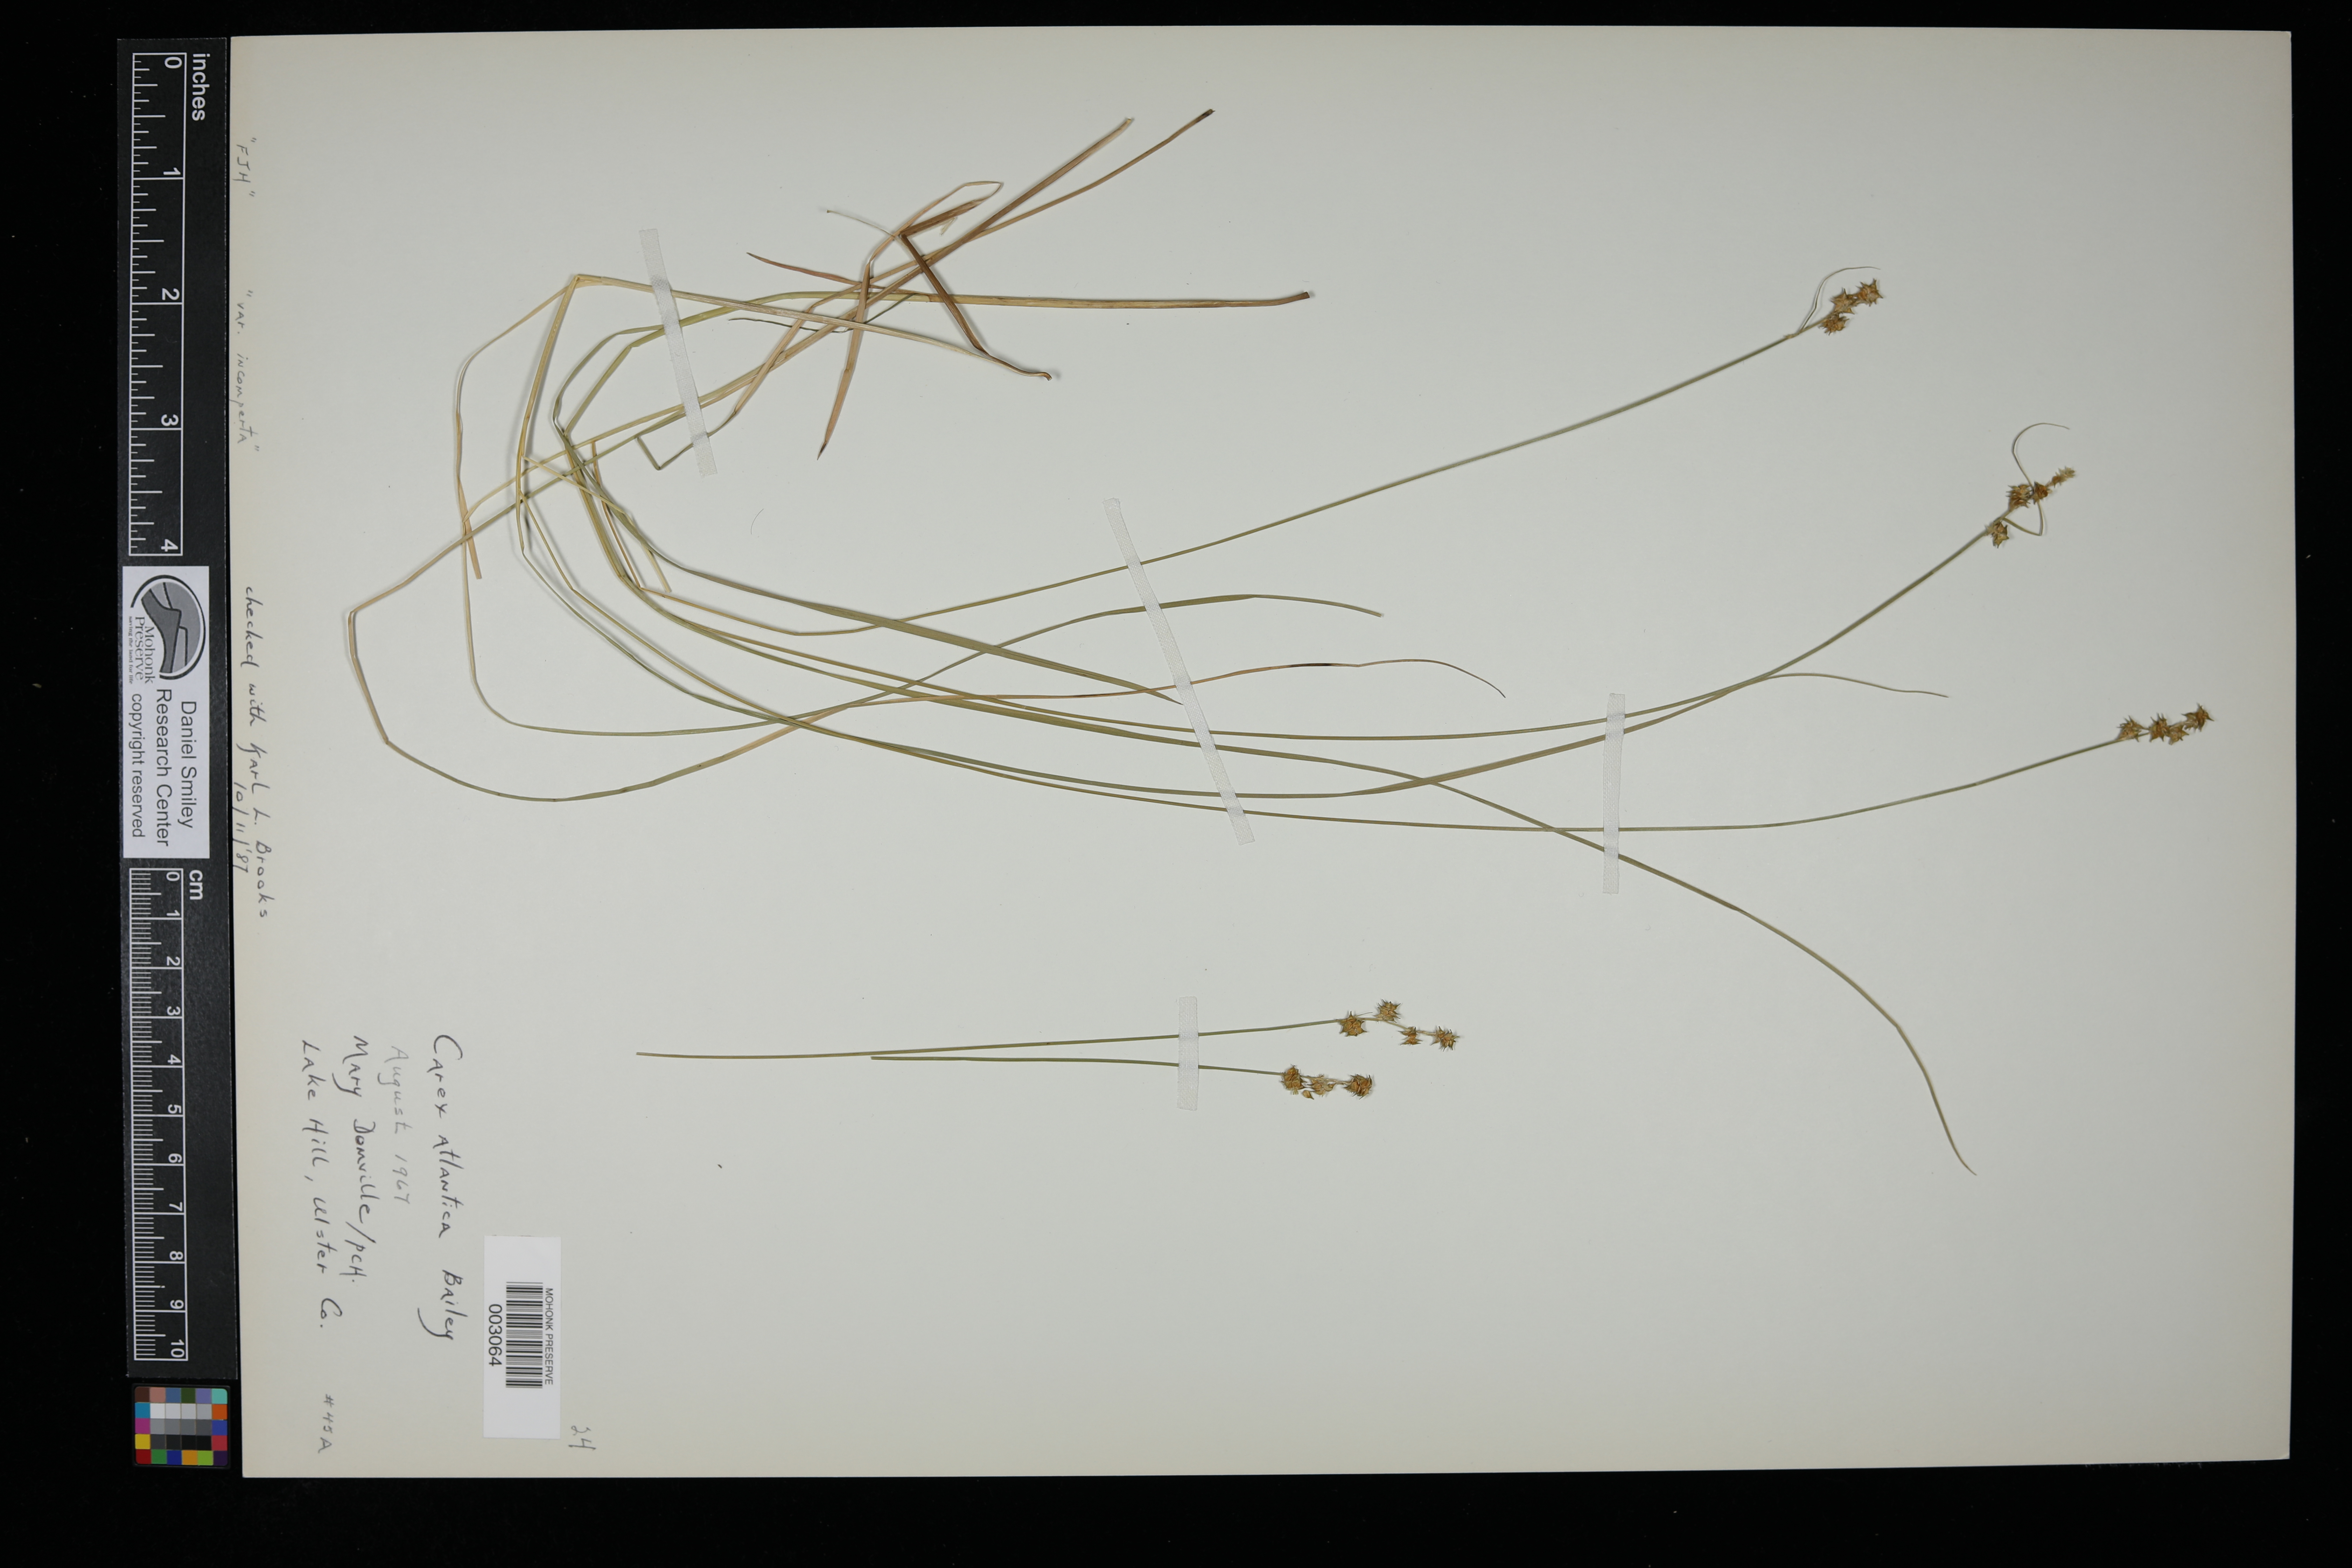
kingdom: Plantae
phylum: Tracheophyta
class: Liliopsida
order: Poales
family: Cyperaceae
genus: Carex
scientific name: Carex atlantica
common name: Atlantic sedge
